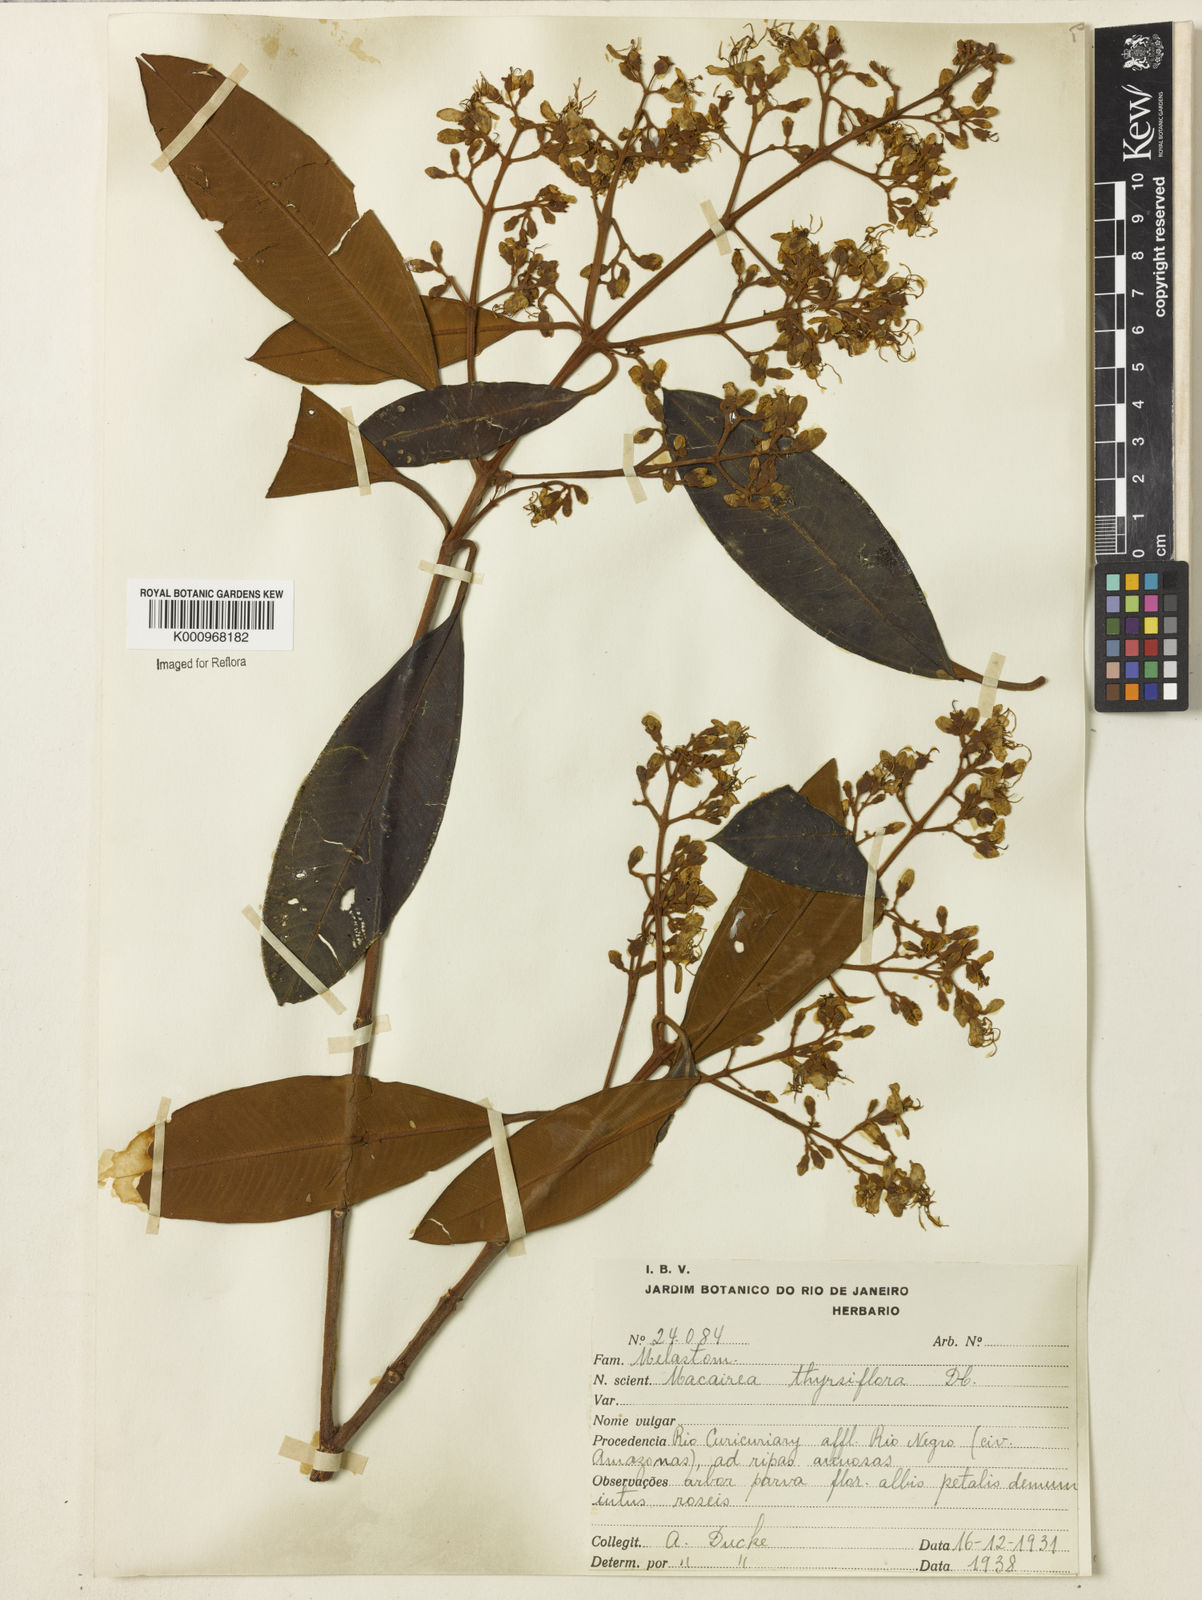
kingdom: Plantae
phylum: Tracheophyta
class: Magnoliopsida
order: Myrtales
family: Melastomataceae
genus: Macairea
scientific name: Macairea thyrsiflora
